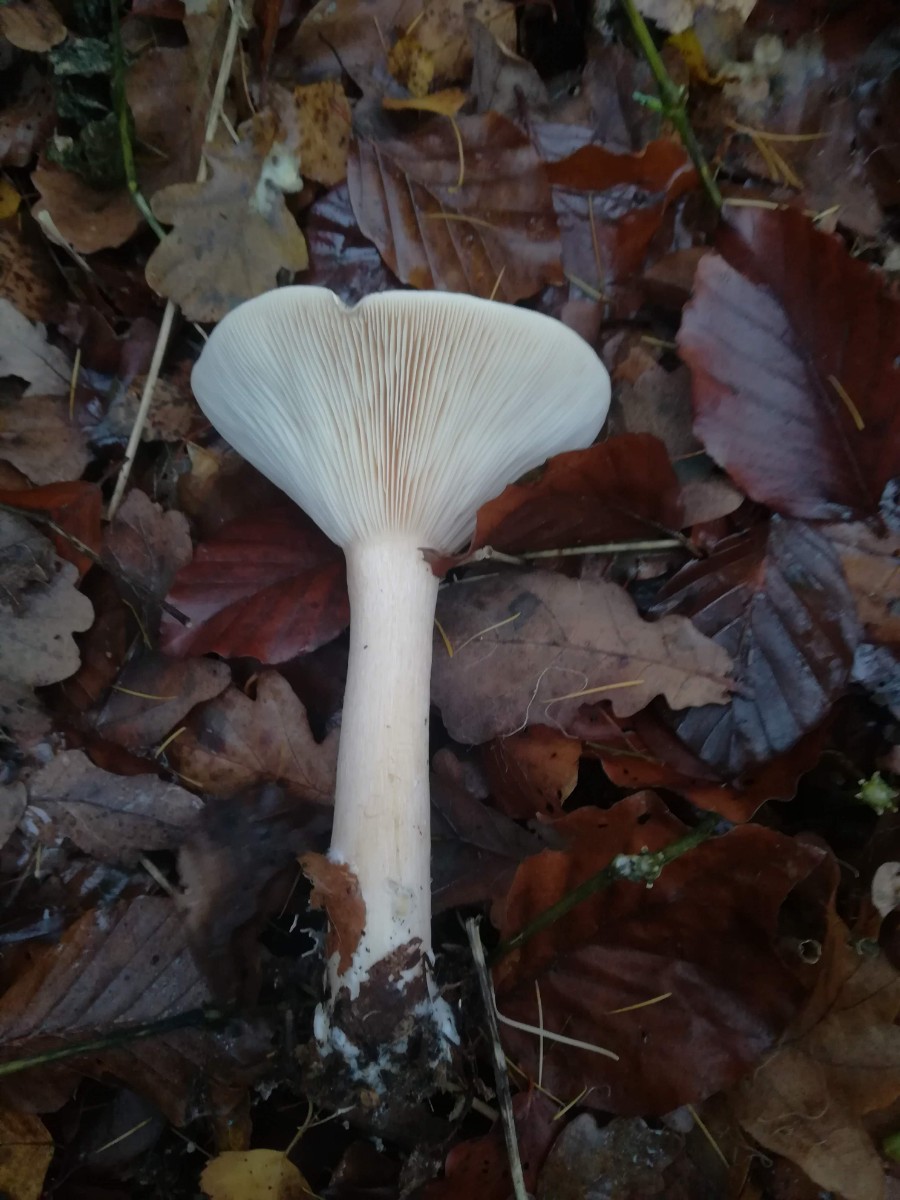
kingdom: Fungi
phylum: Basidiomycota
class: Agaricomycetes
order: Agaricales
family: Tricholomataceae
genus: Infundibulicybe
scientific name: Infundibulicybe geotropa
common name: stor tragthat
